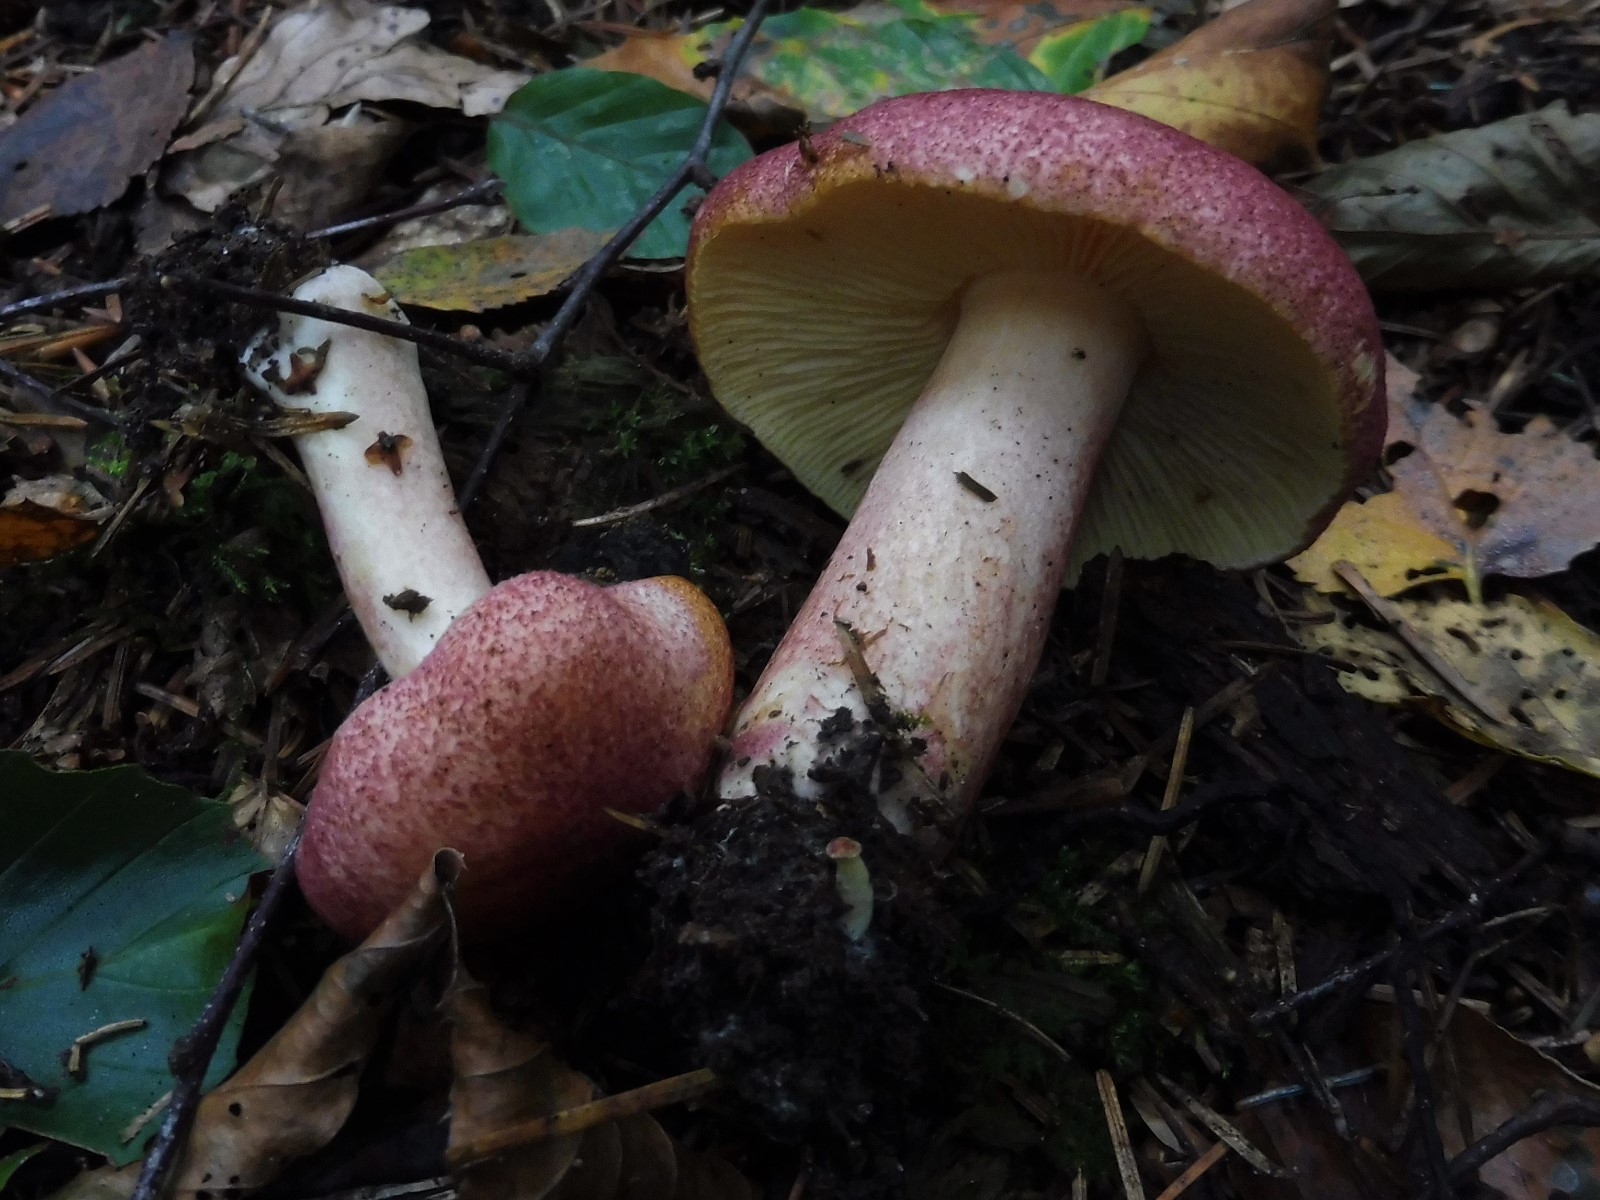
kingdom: Fungi
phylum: Basidiomycota
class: Agaricomycetes
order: Agaricales
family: Tricholomataceae
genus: Tricholomopsis
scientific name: Tricholomopsis rutilans
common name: purpur-væbnerhat
